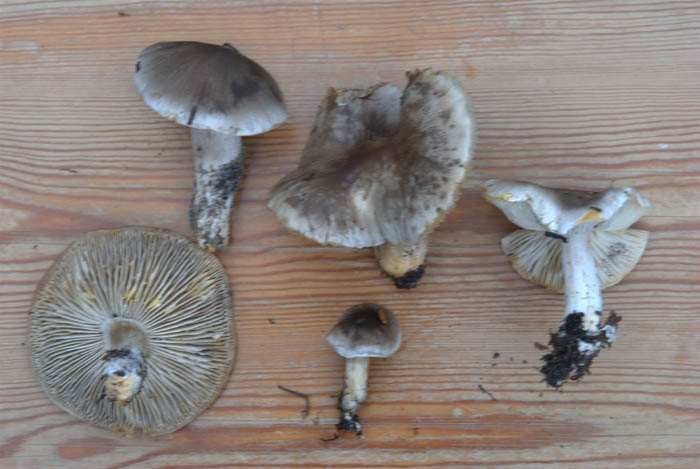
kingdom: Fungi
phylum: Basidiomycota
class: Agaricomycetes
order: Agaricales
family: Tricholomataceae
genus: Tricholoma
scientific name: Tricholoma sudum
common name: tør ridderhat
